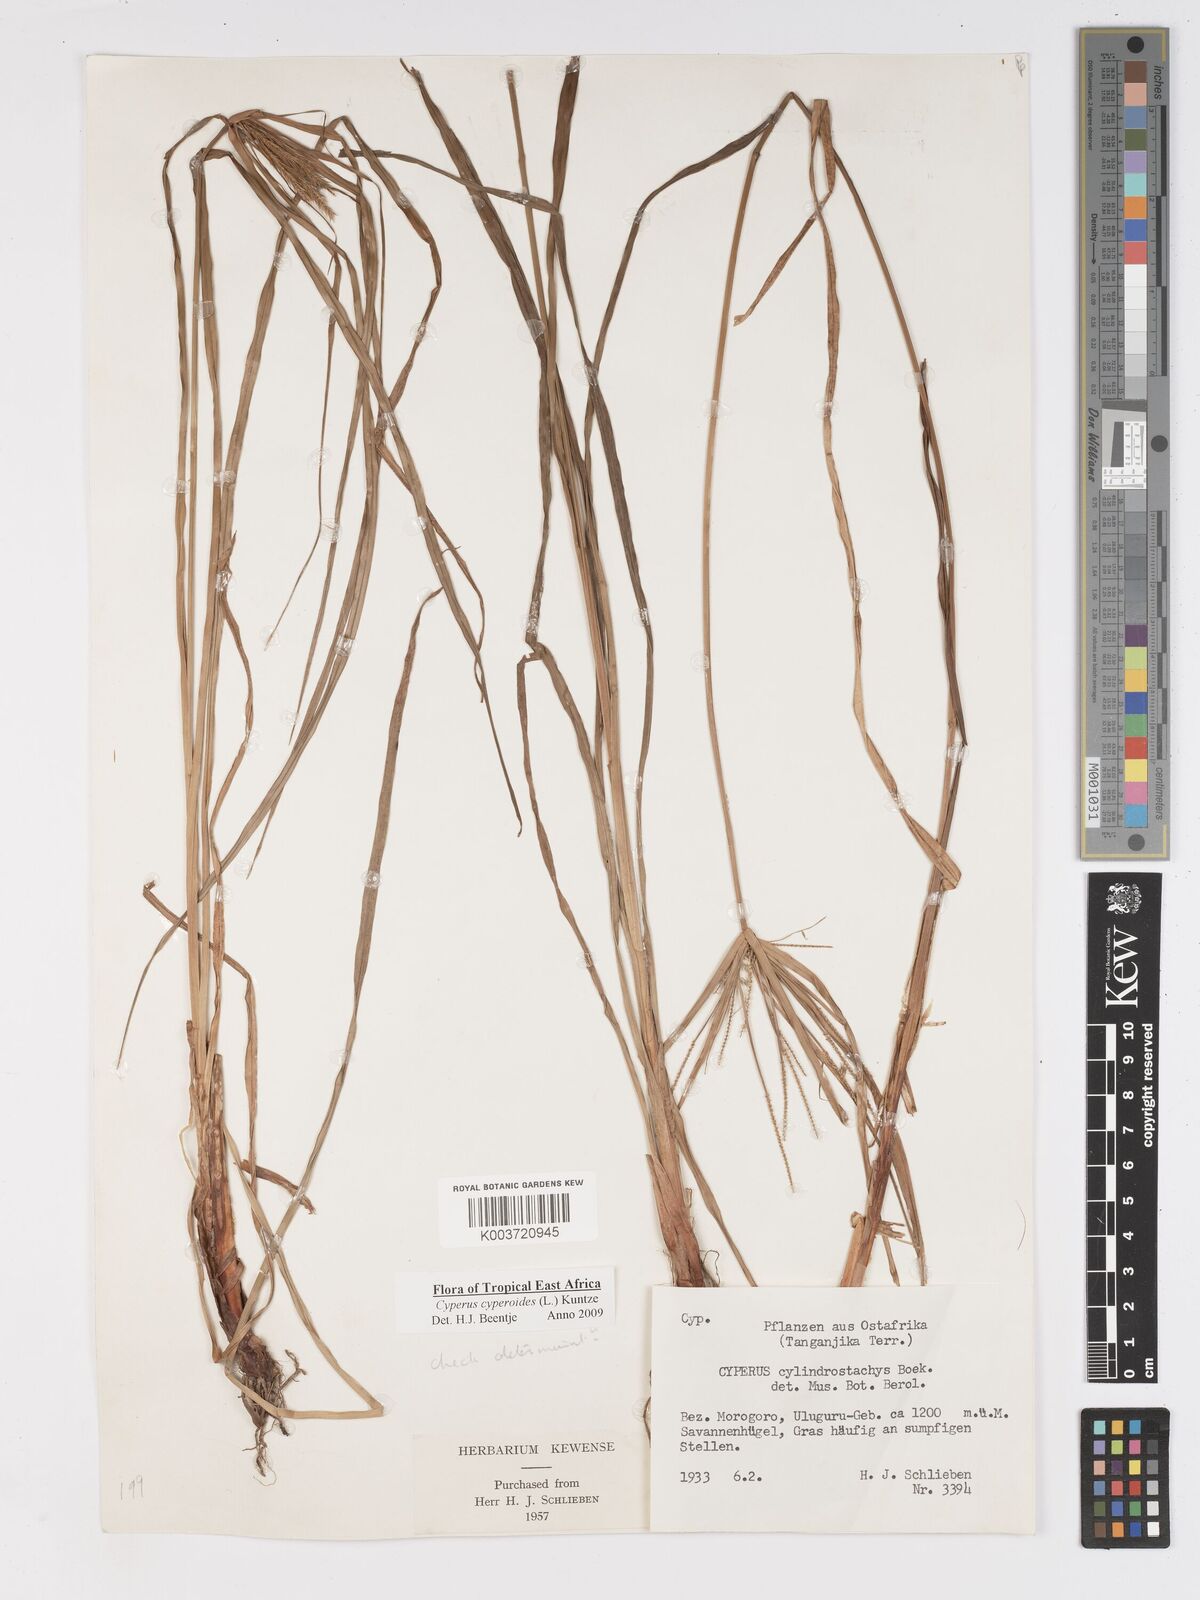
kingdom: Plantae
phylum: Tracheophyta
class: Liliopsida
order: Poales
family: Cyperaceae
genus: Cyperus
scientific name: Cyperus cyperoides
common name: Pacific island flat sedge
